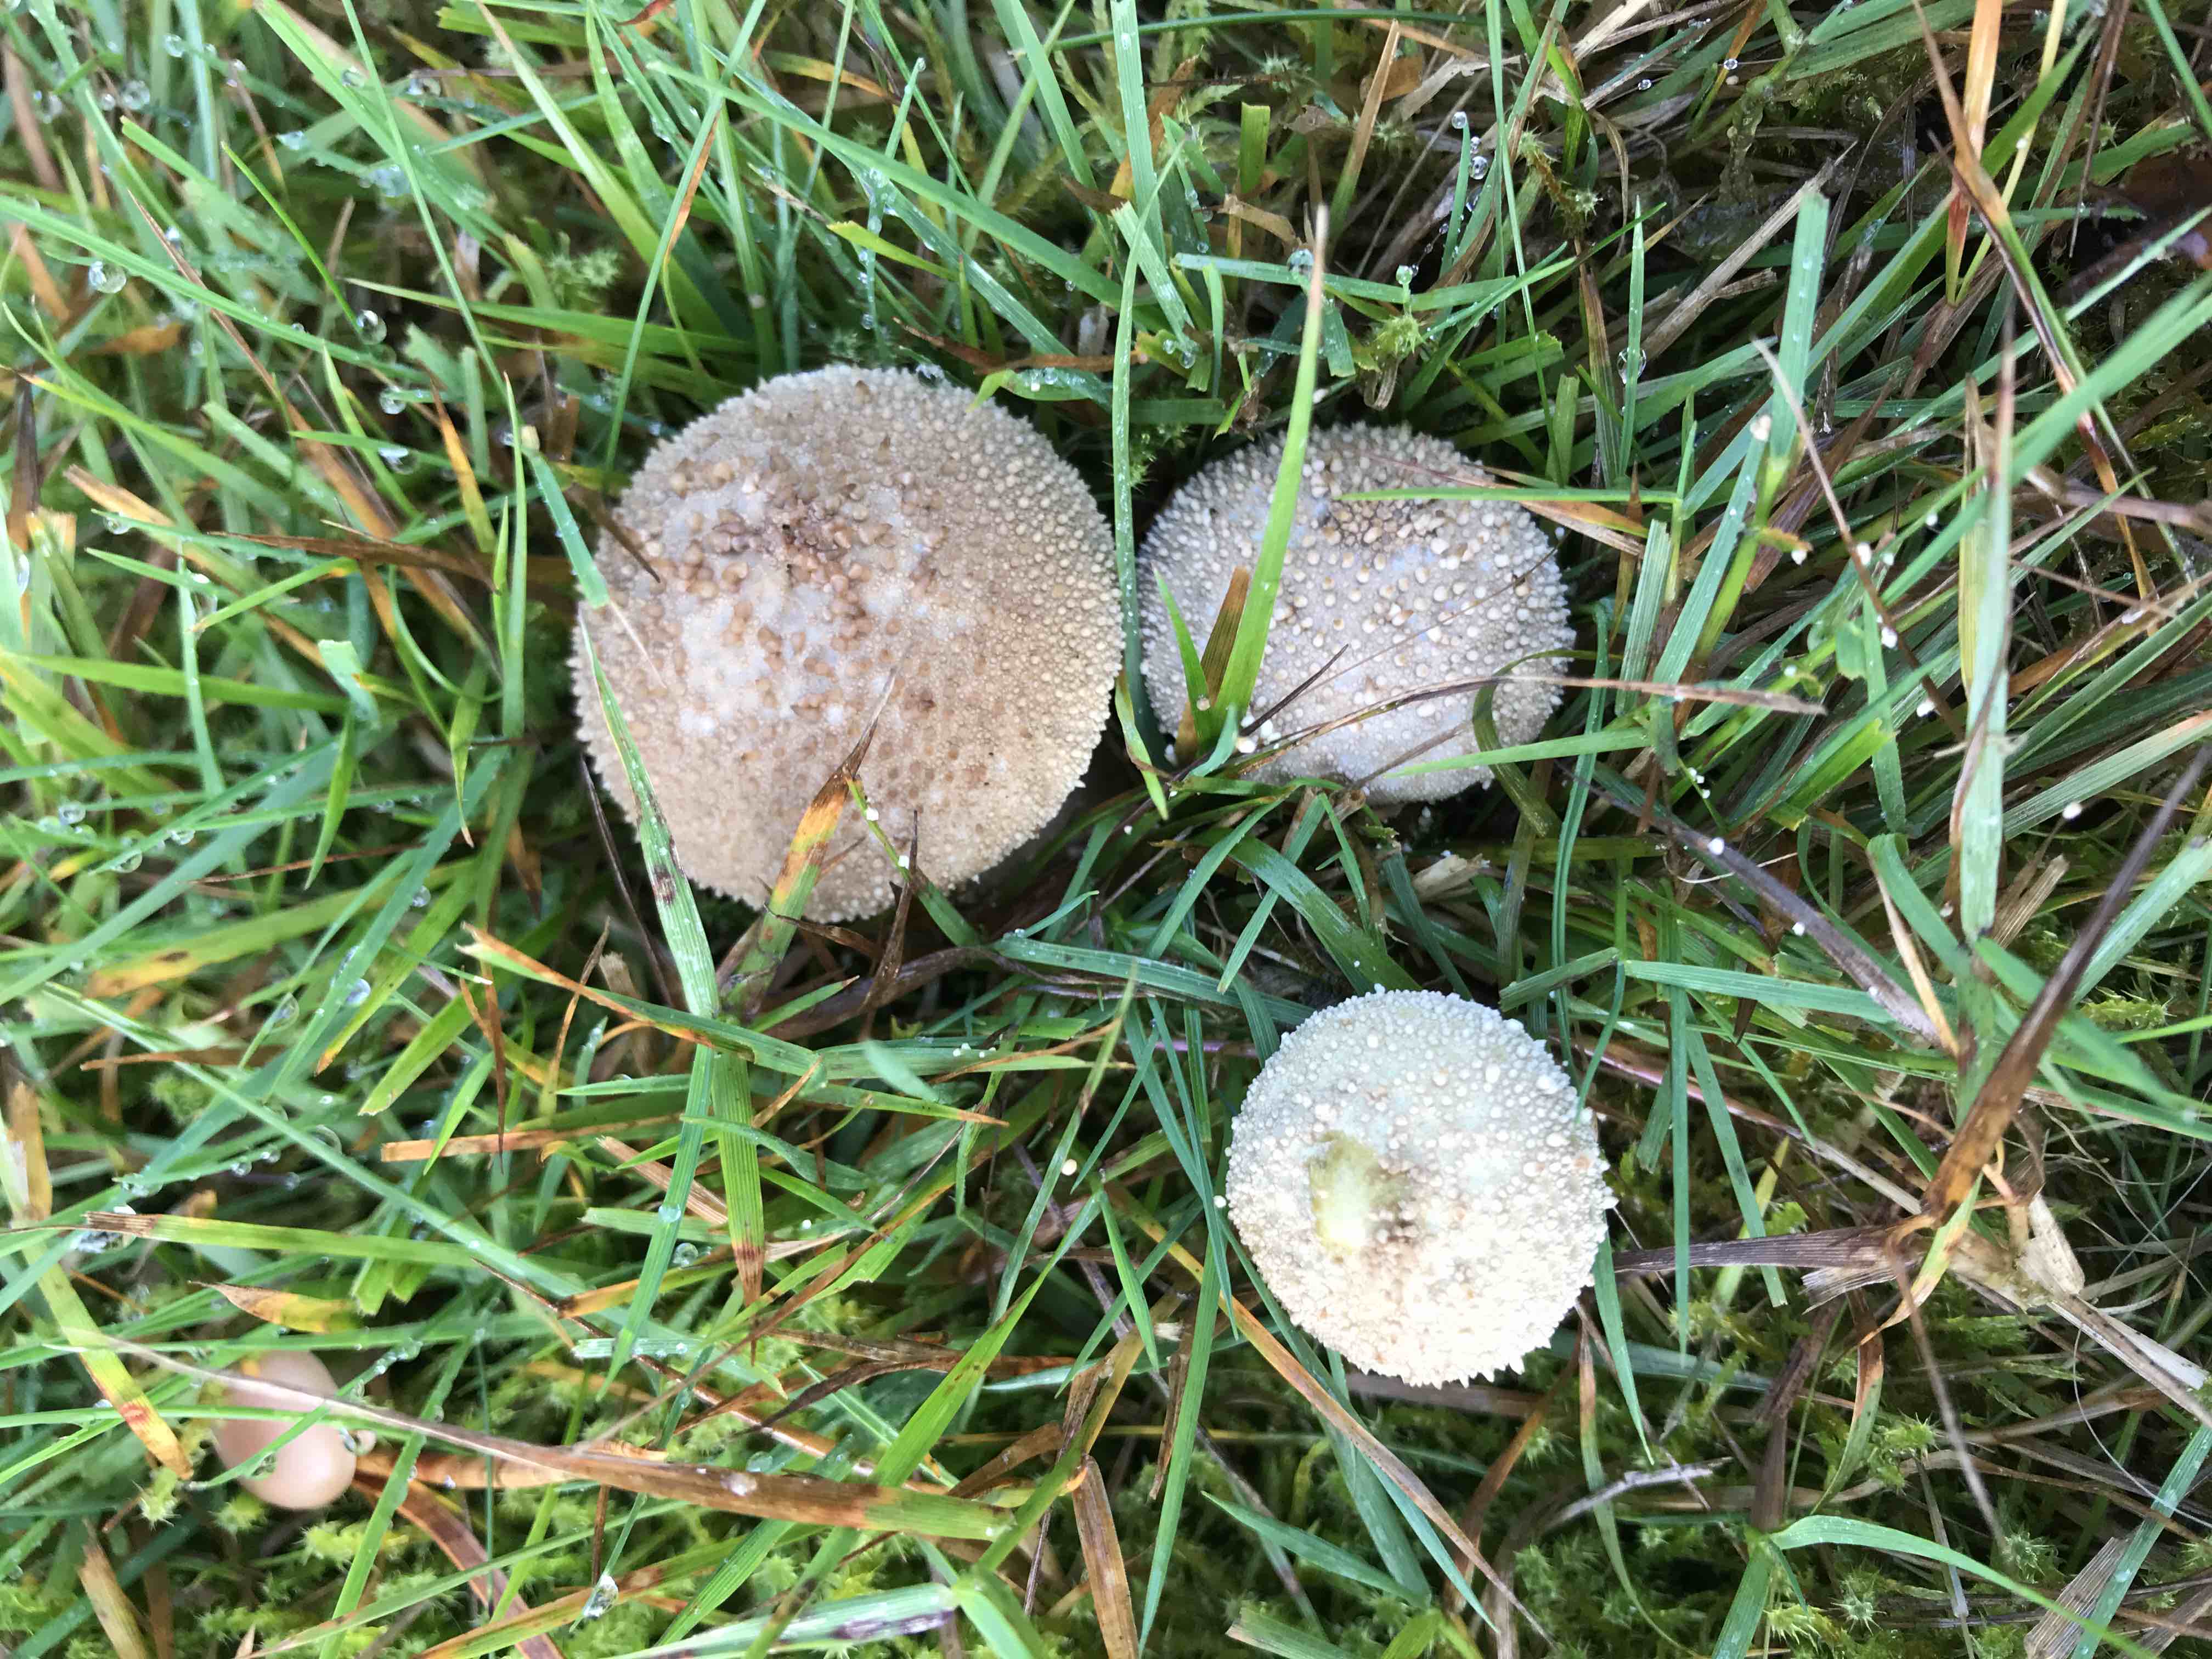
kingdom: Fungi
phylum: Basidiomycota
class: Agaricomycetes
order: Agaricales
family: Lycoperdaceae
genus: Lycoperdon
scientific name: Lycoperdon perlatum
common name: krystal-støvbold
